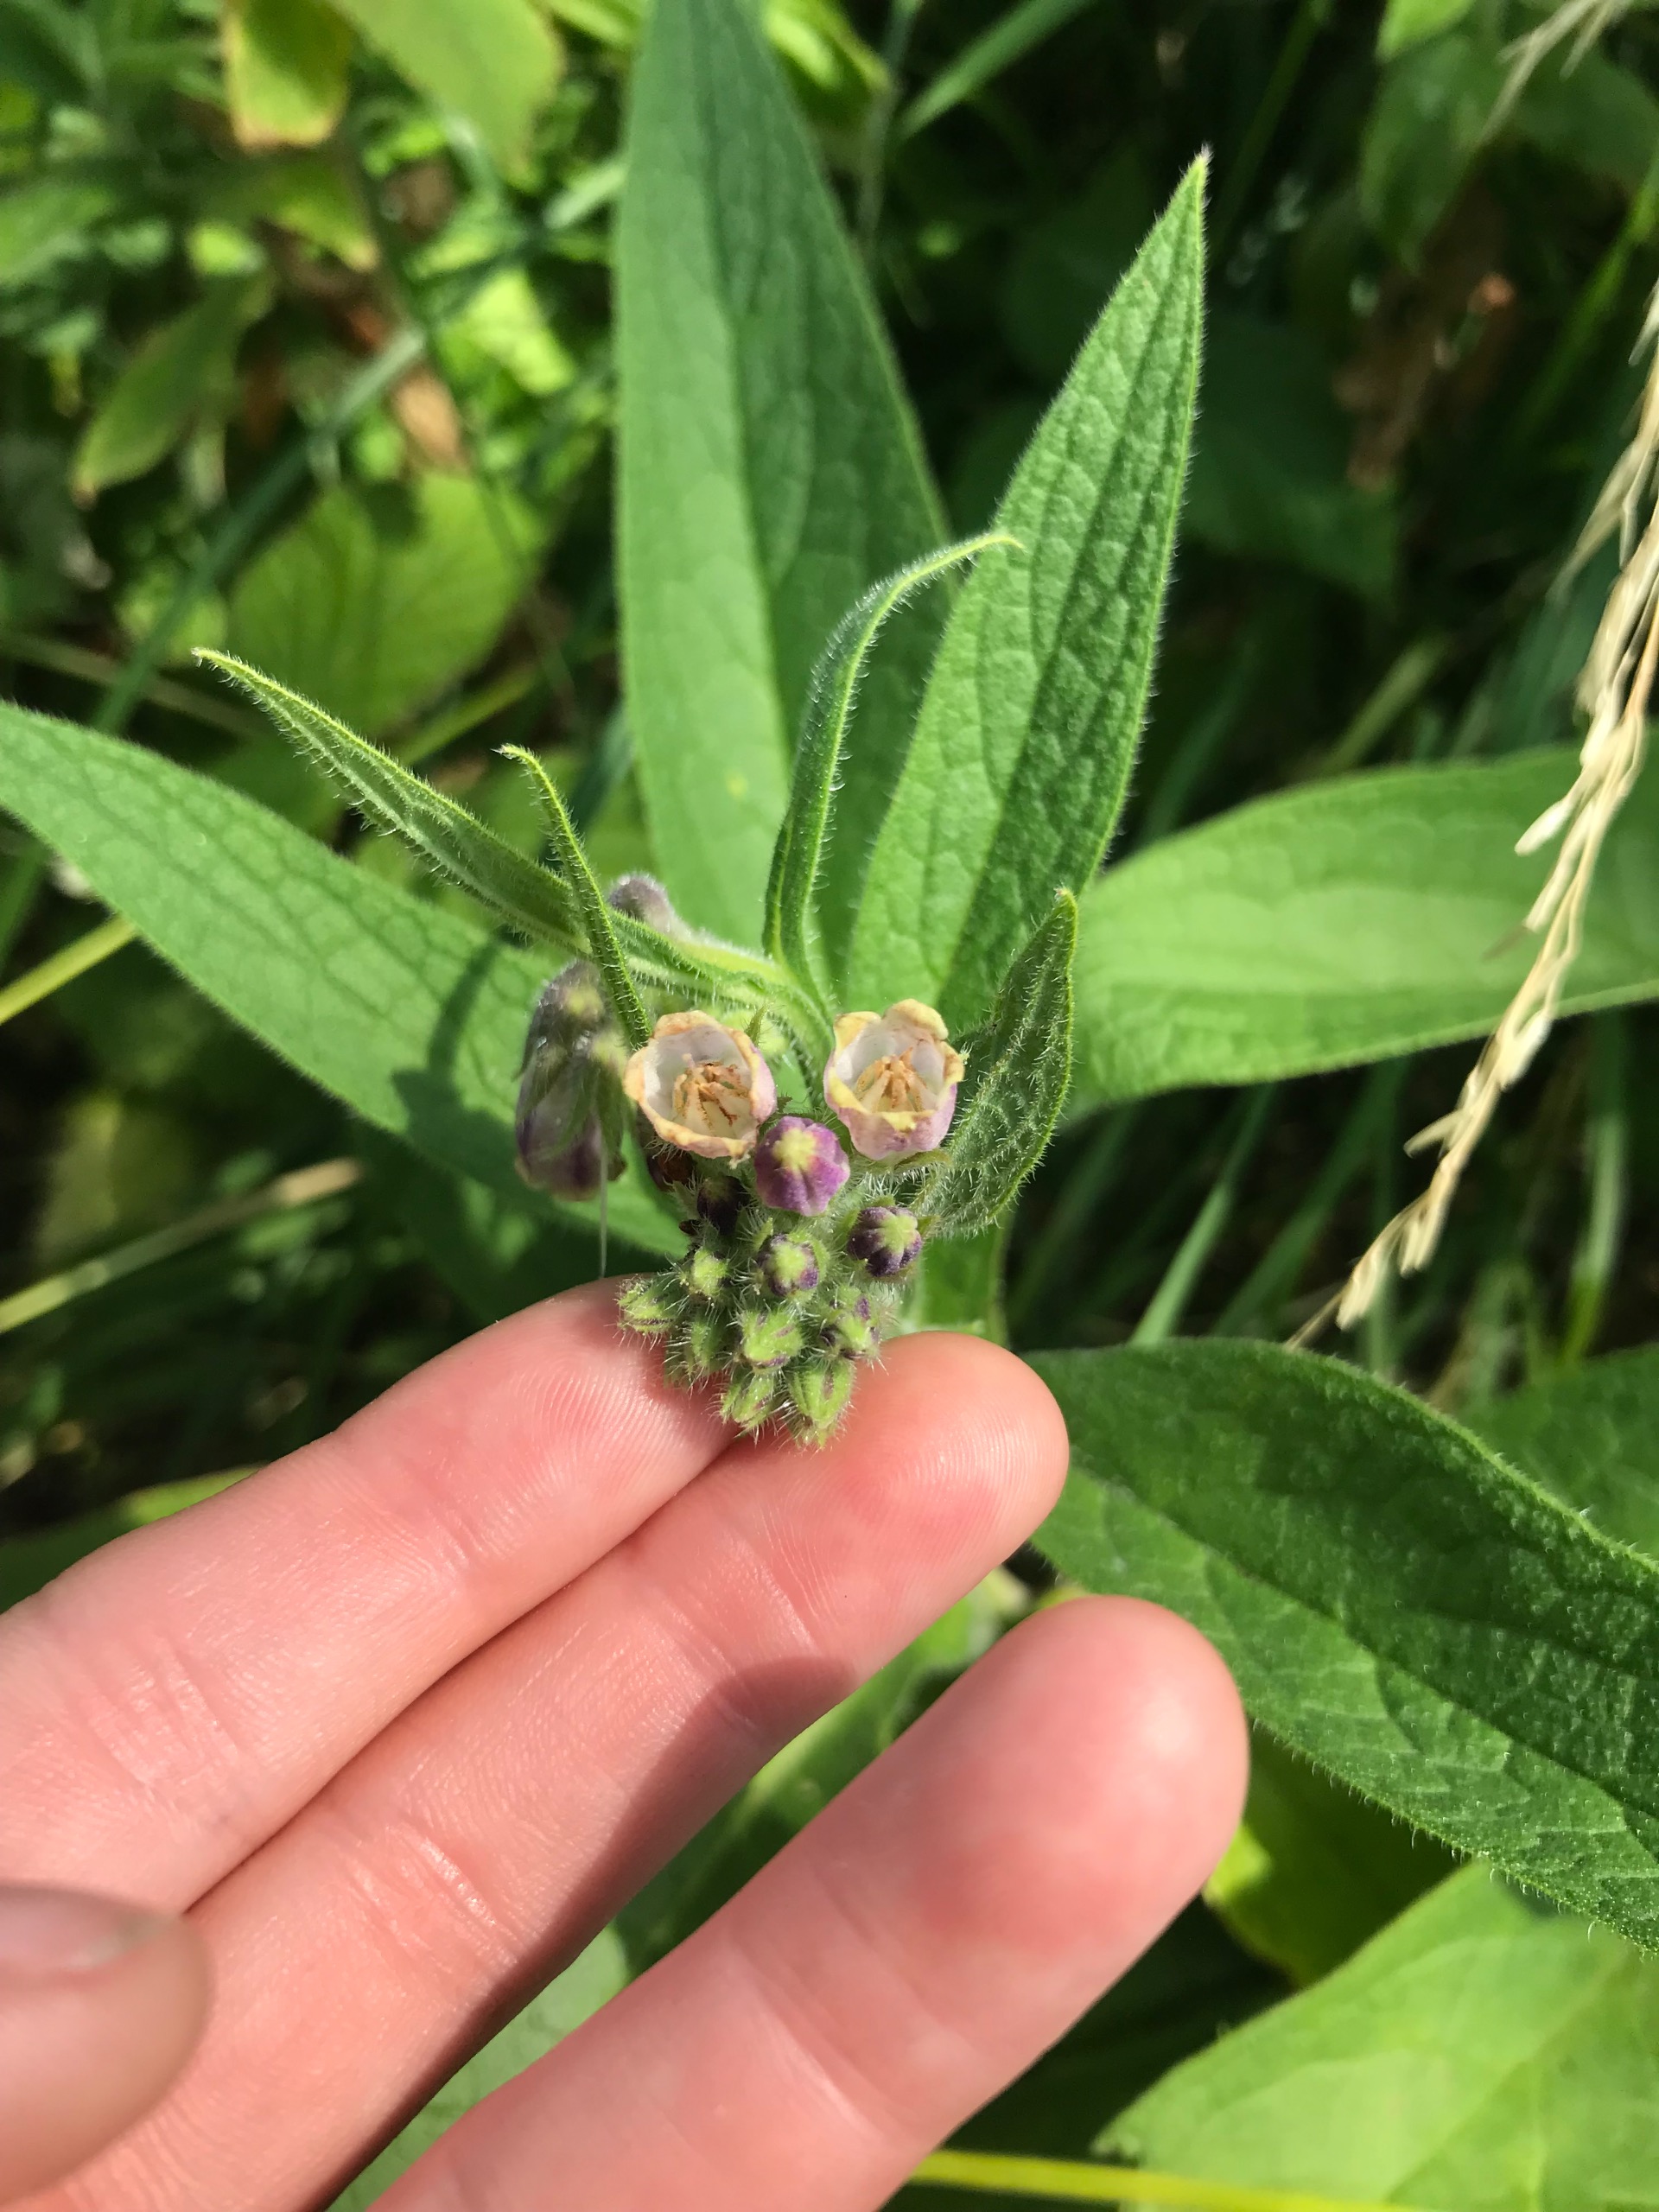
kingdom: Plantae
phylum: Tracheophyta
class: Magnoliopsida
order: Boraginales
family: Boraginaceae
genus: Symphytum
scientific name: Symphytum
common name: Kulsukkerslægten
